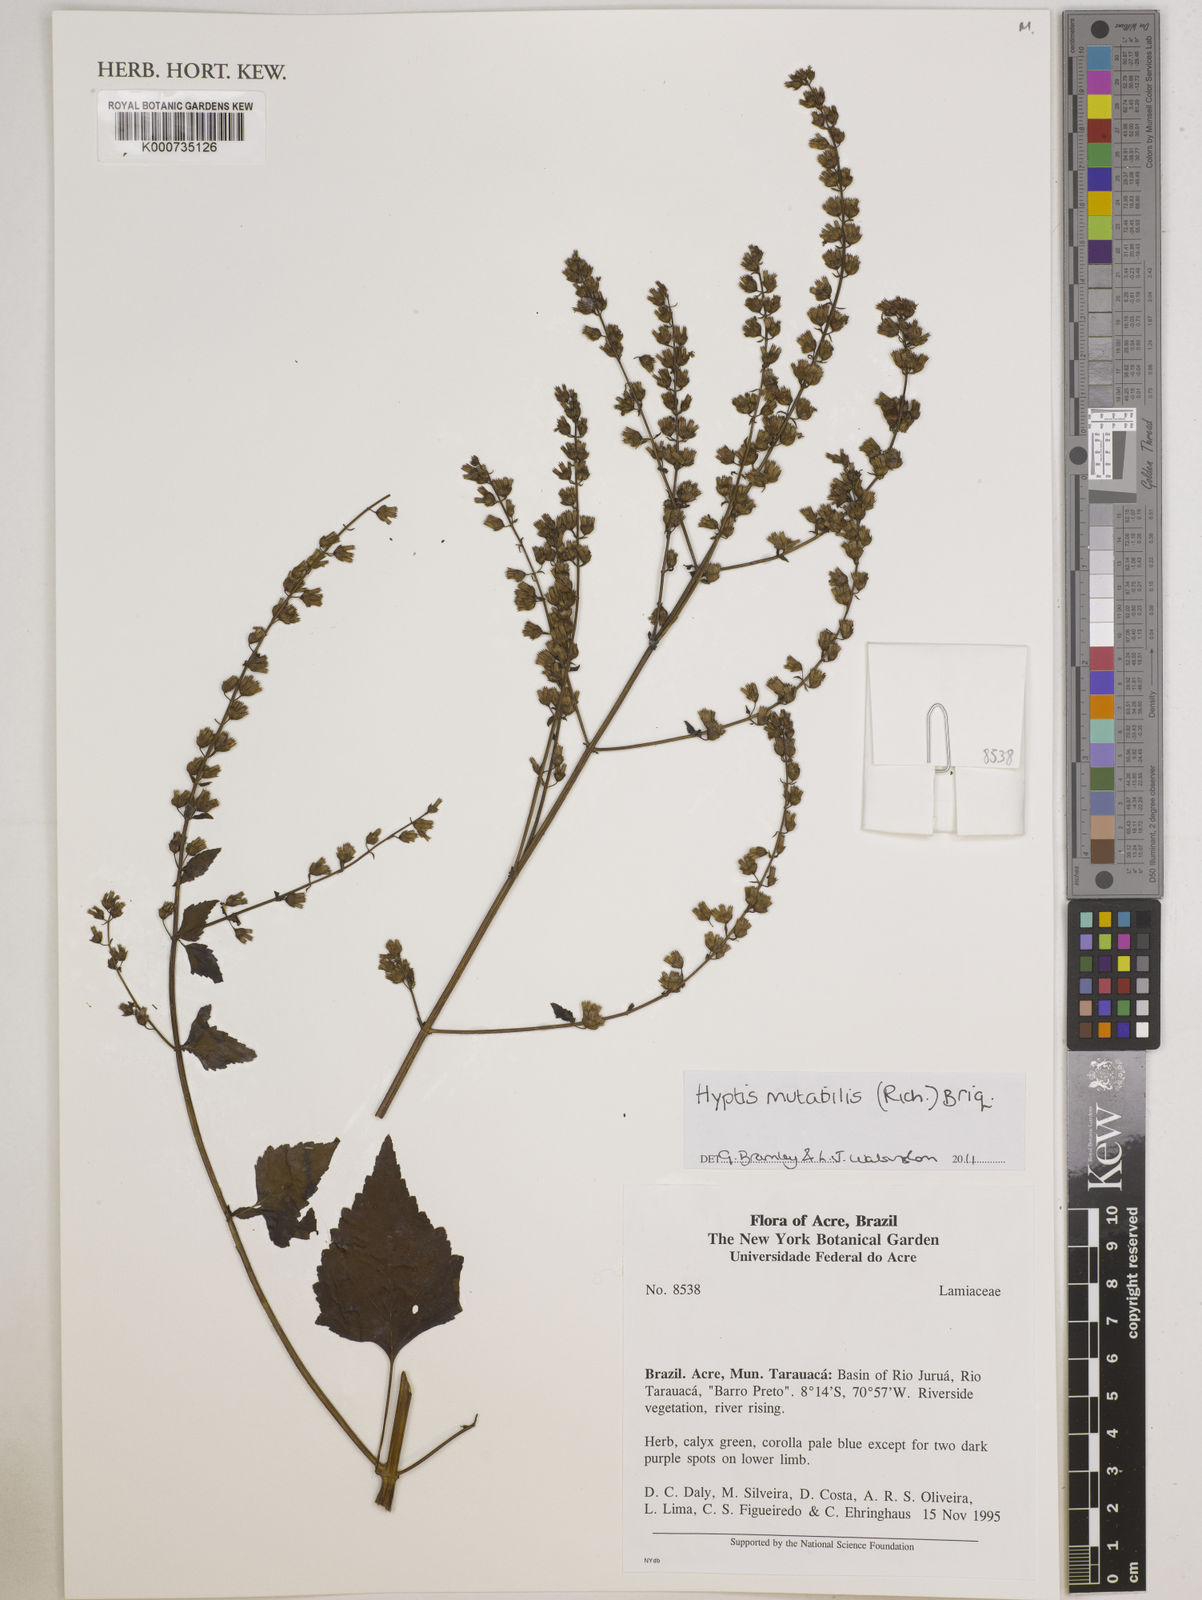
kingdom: Plantae
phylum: Tracheophyta
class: Magnoliopsida
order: Lamiales
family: Lamiaceae
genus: Cantinoa
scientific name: Cantinoa mutabilis
